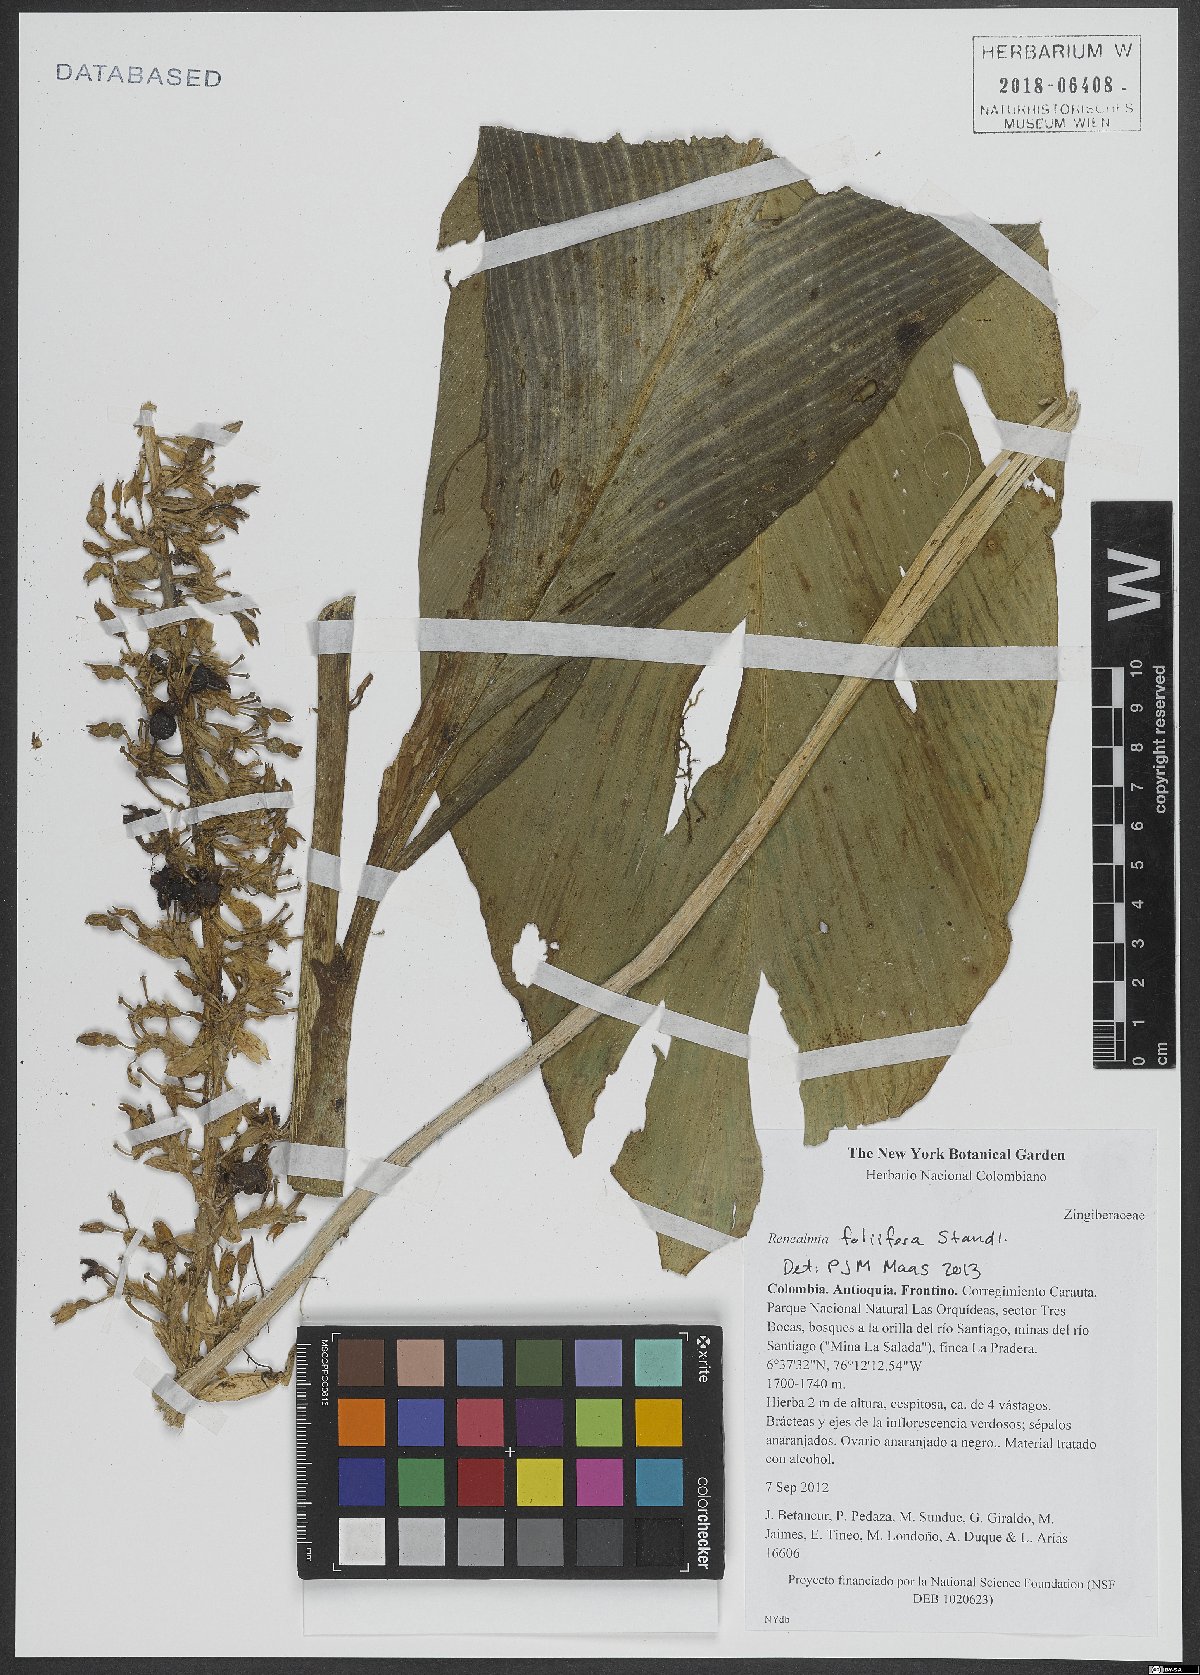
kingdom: Plantae
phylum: Tracheophyta
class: Liliopsida
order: Zingiberales
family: Zingiberaceae
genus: Renealmia
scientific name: Renealmia foliifera
